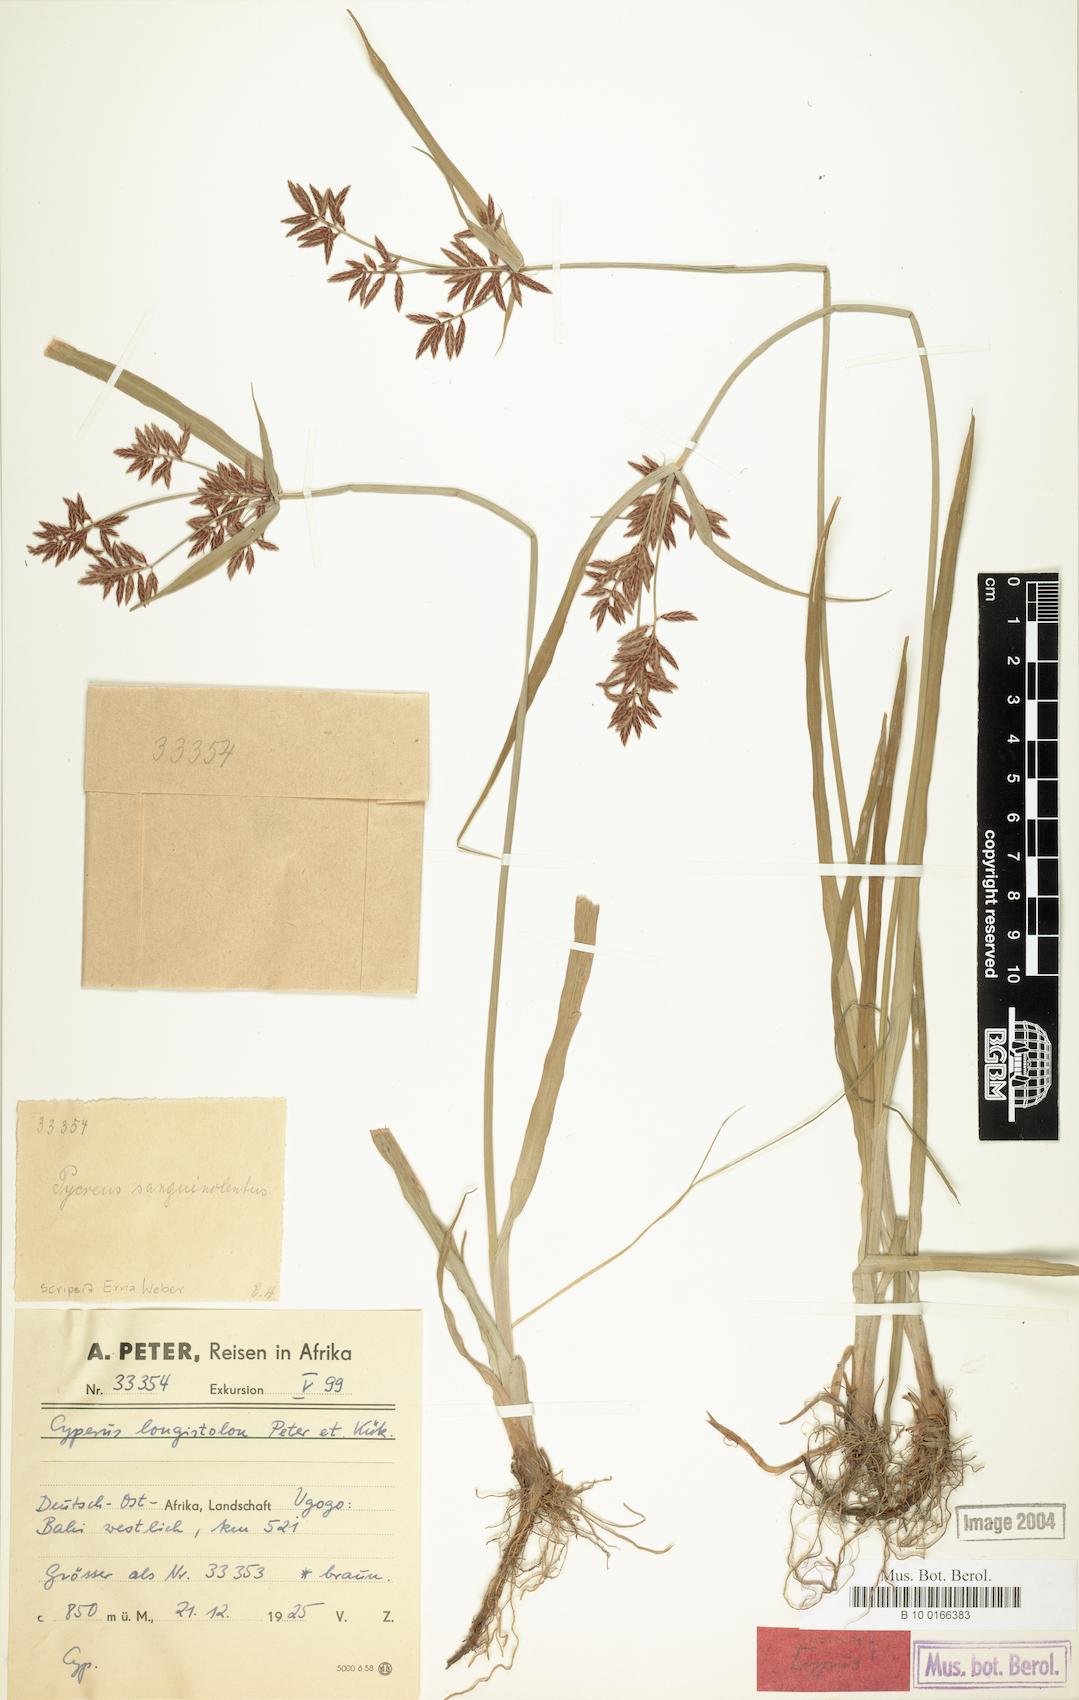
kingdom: Plantae
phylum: Tracheophyta
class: Liliopsida
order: Poales
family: Cyperaceae
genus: Cyperus
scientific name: Cyperus chrysanthus
